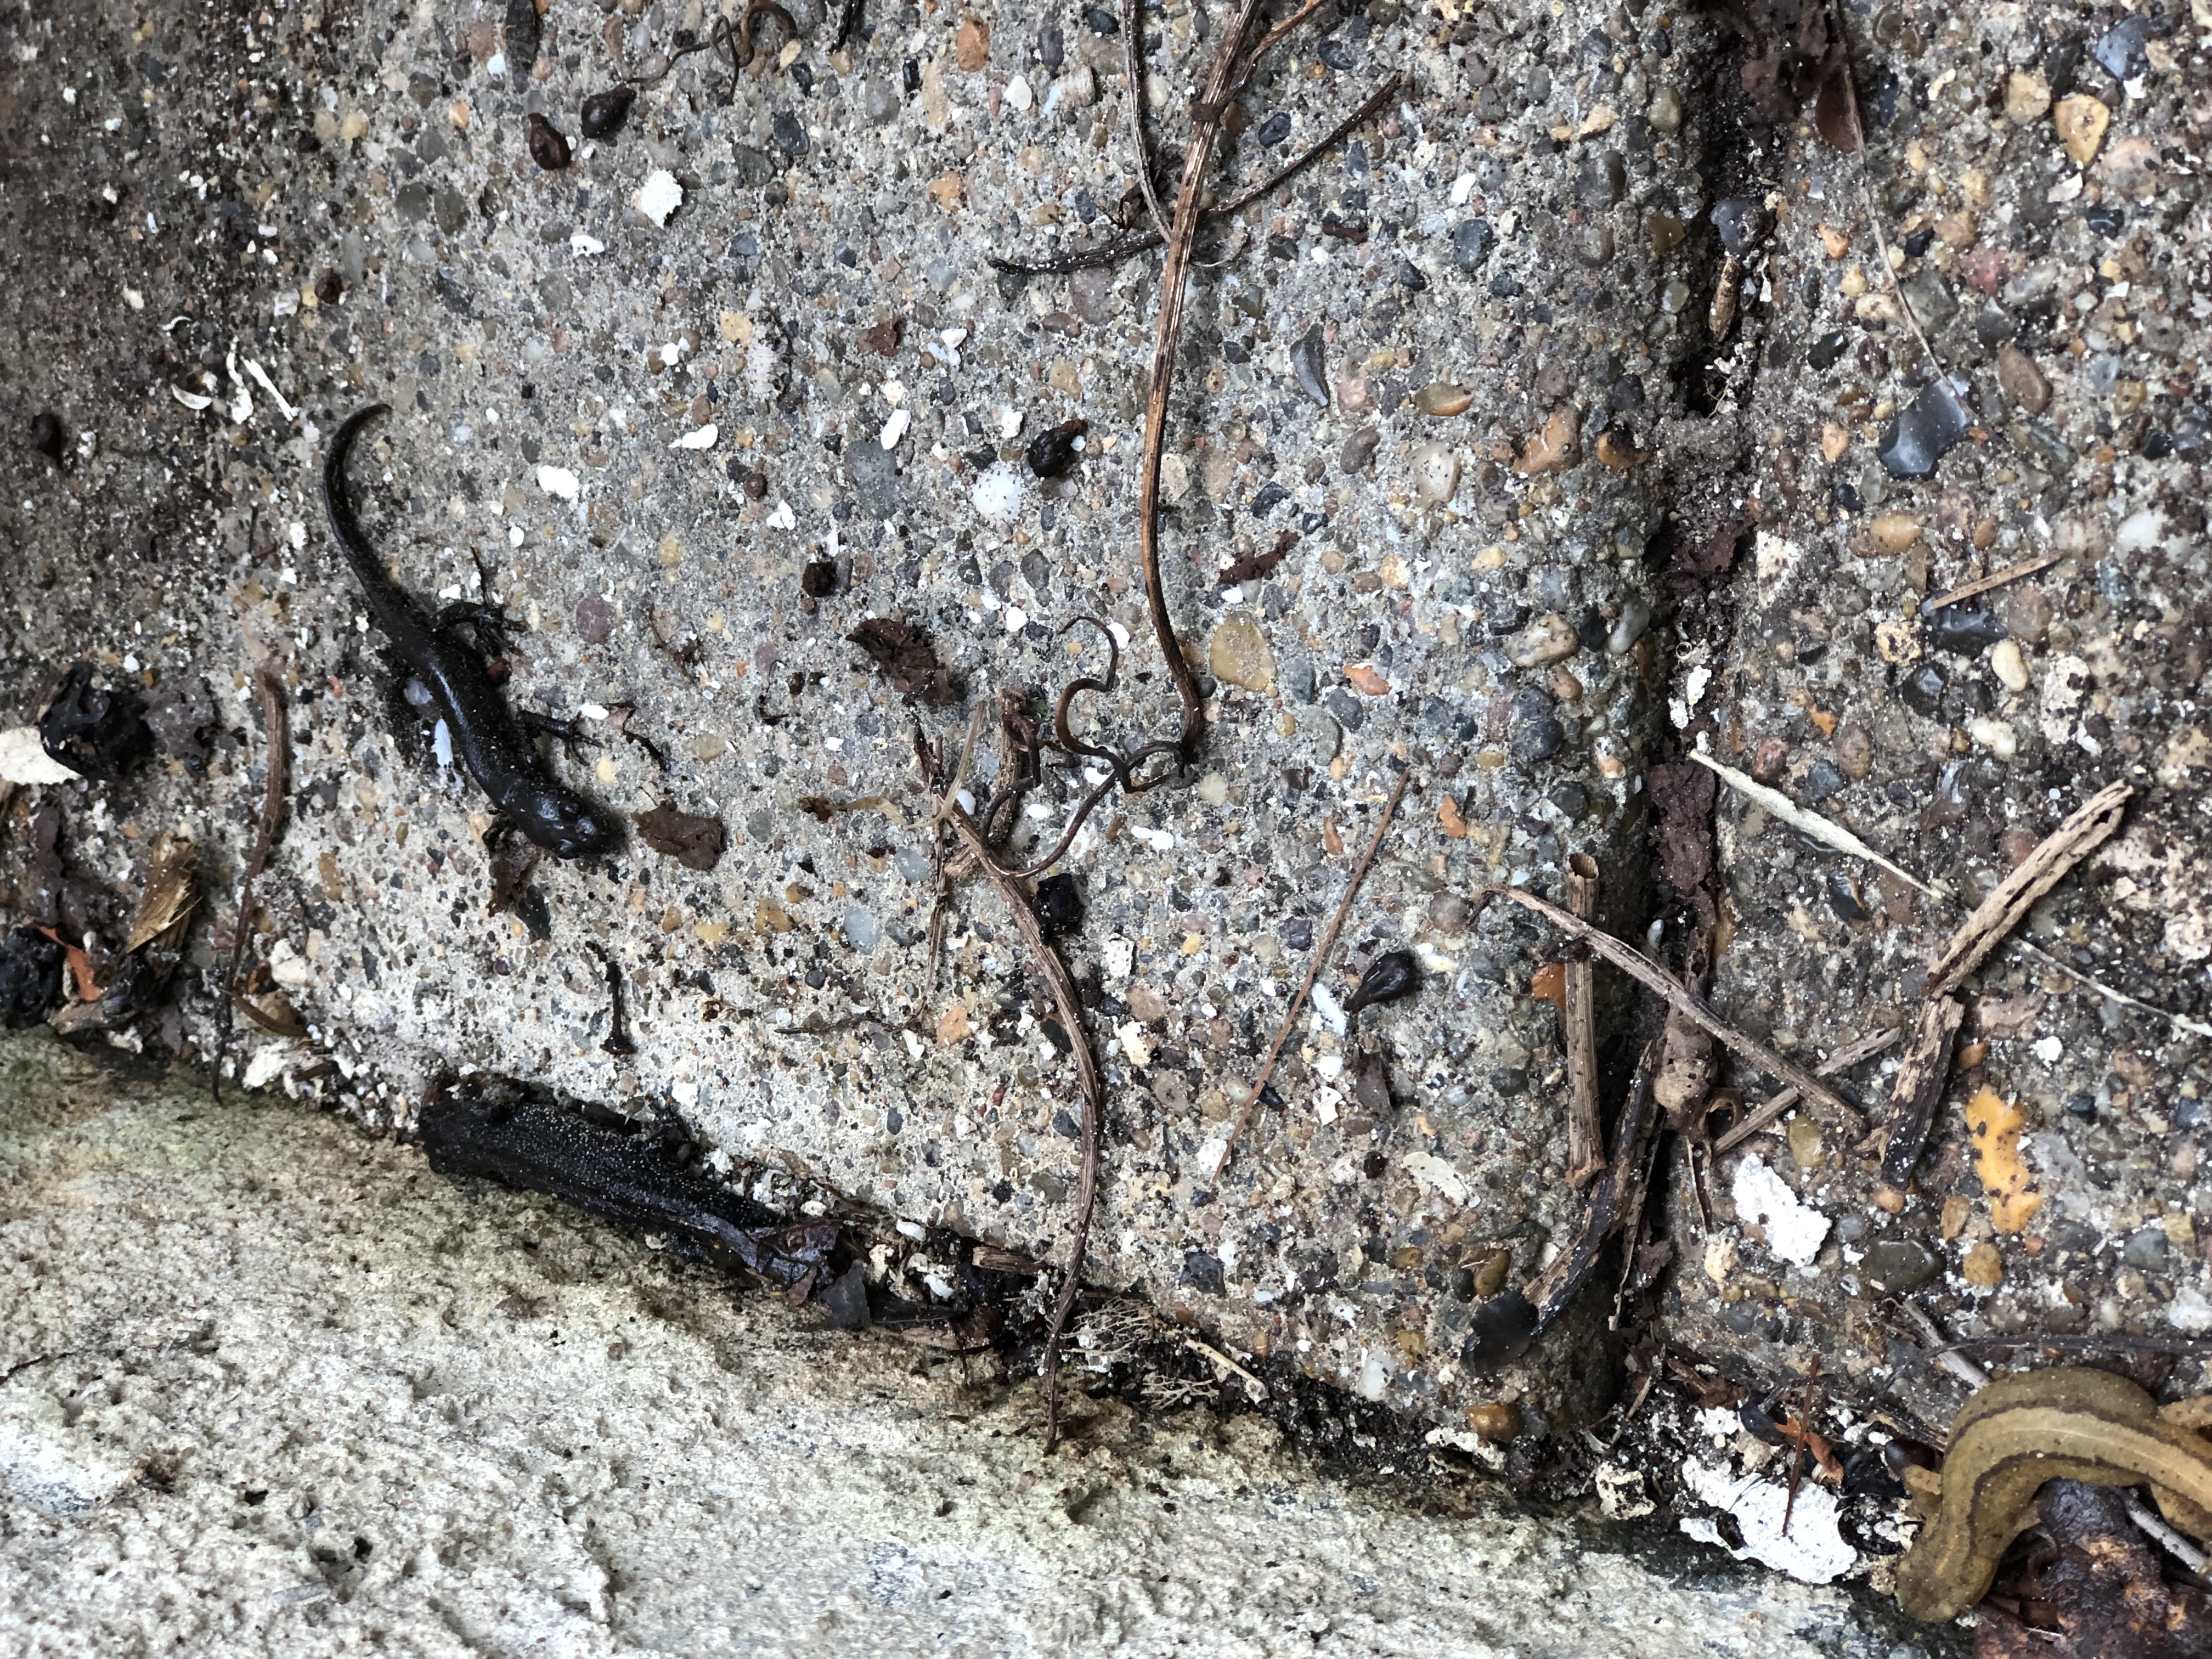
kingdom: Animalia
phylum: Chordata
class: Amphibia
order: Caudata
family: Salamandridae
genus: Triturus
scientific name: Triturus cristatus
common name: Stor vandsalamander
